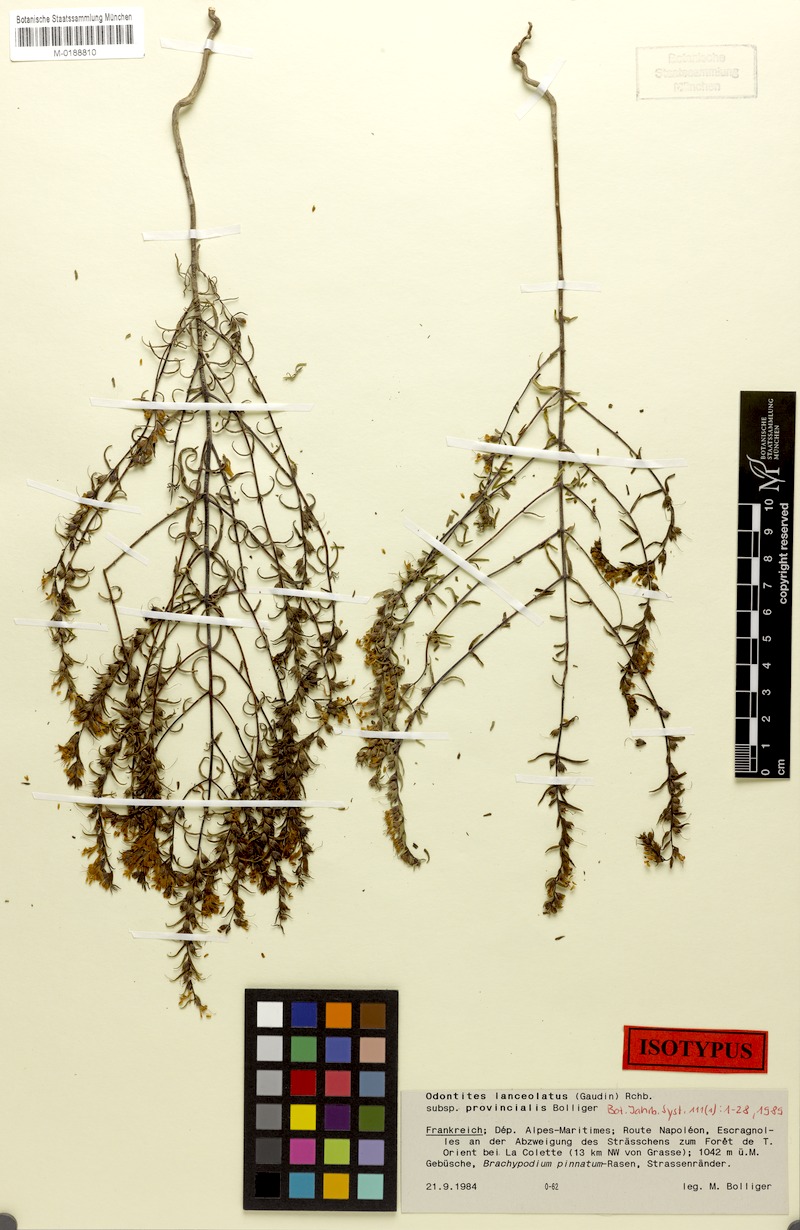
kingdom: Plantae
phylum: Tracheophyta
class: Magnoliopsida
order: Lamiales
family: Orobanchaceae
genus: Odontites
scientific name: Odontites lanceolatus
